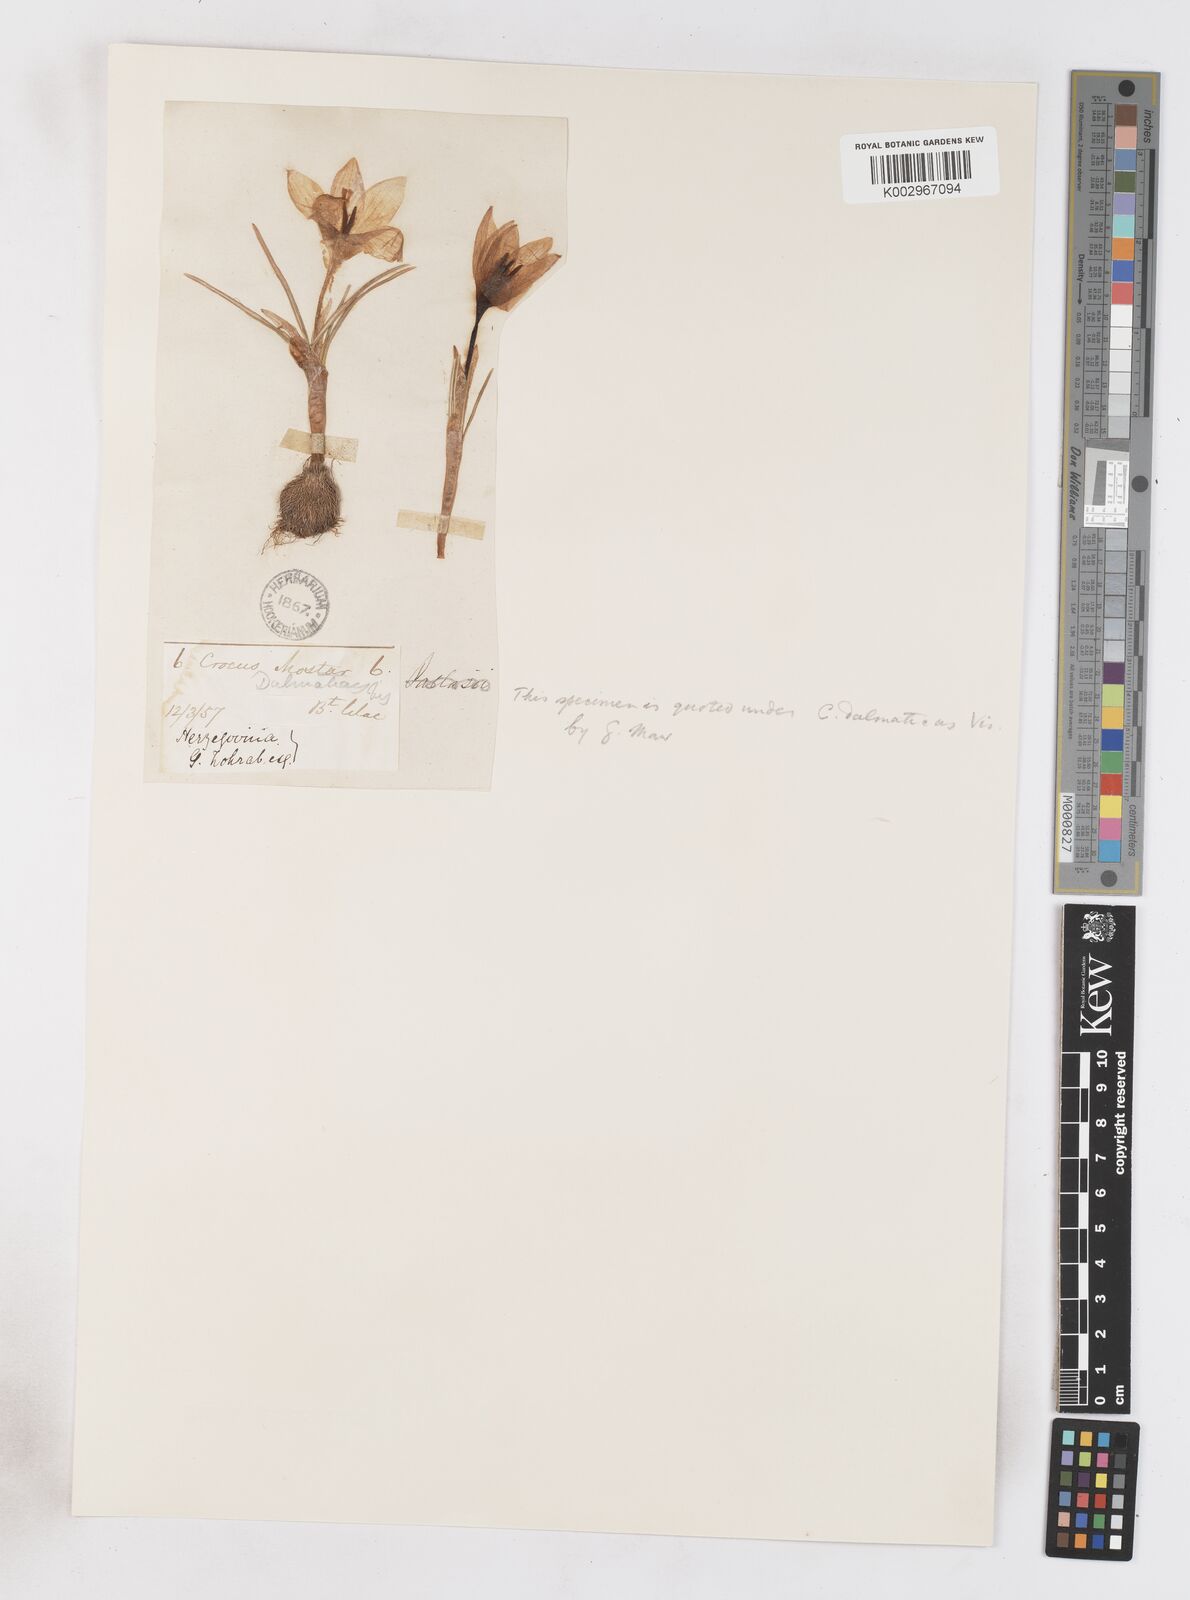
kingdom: Plantae
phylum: Tracheophyta
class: Liliopsida
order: Asparagales
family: Iridaceae
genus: Crocus
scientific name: Crocus dalmaticus
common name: Dalmatian saffron
